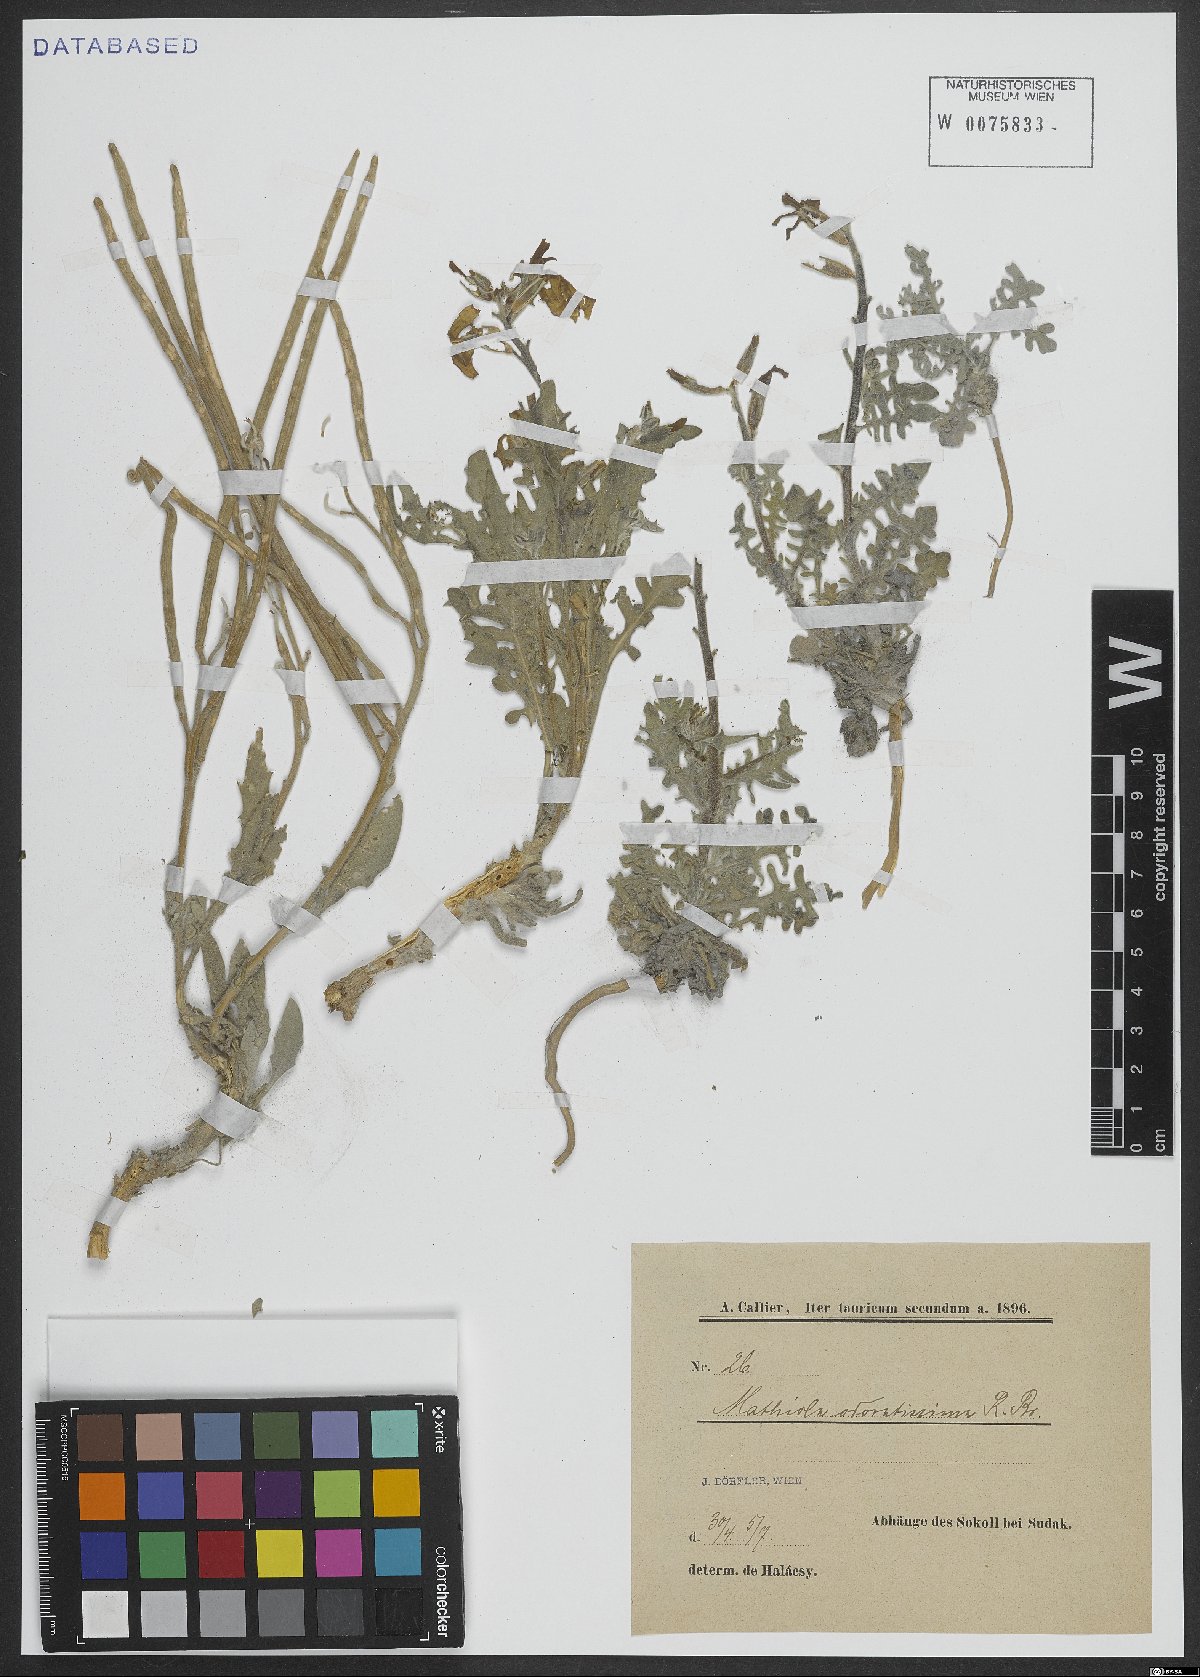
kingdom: Plantae
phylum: Tracheophyta
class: Magnoliopsida
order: Brassicales
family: Brassicaceae
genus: Matthiola
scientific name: Matthiola odoratissima
